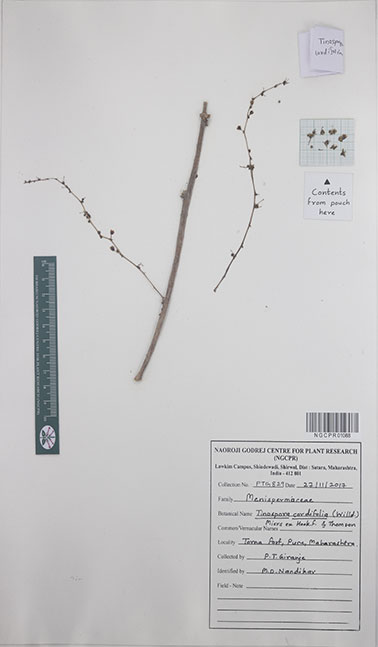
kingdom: Plantae
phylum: Tracheophyta
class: Magnoliopsida
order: Ranunculales
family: Menispermaceae
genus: Tinospora
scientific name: Tinospora cordifolia
